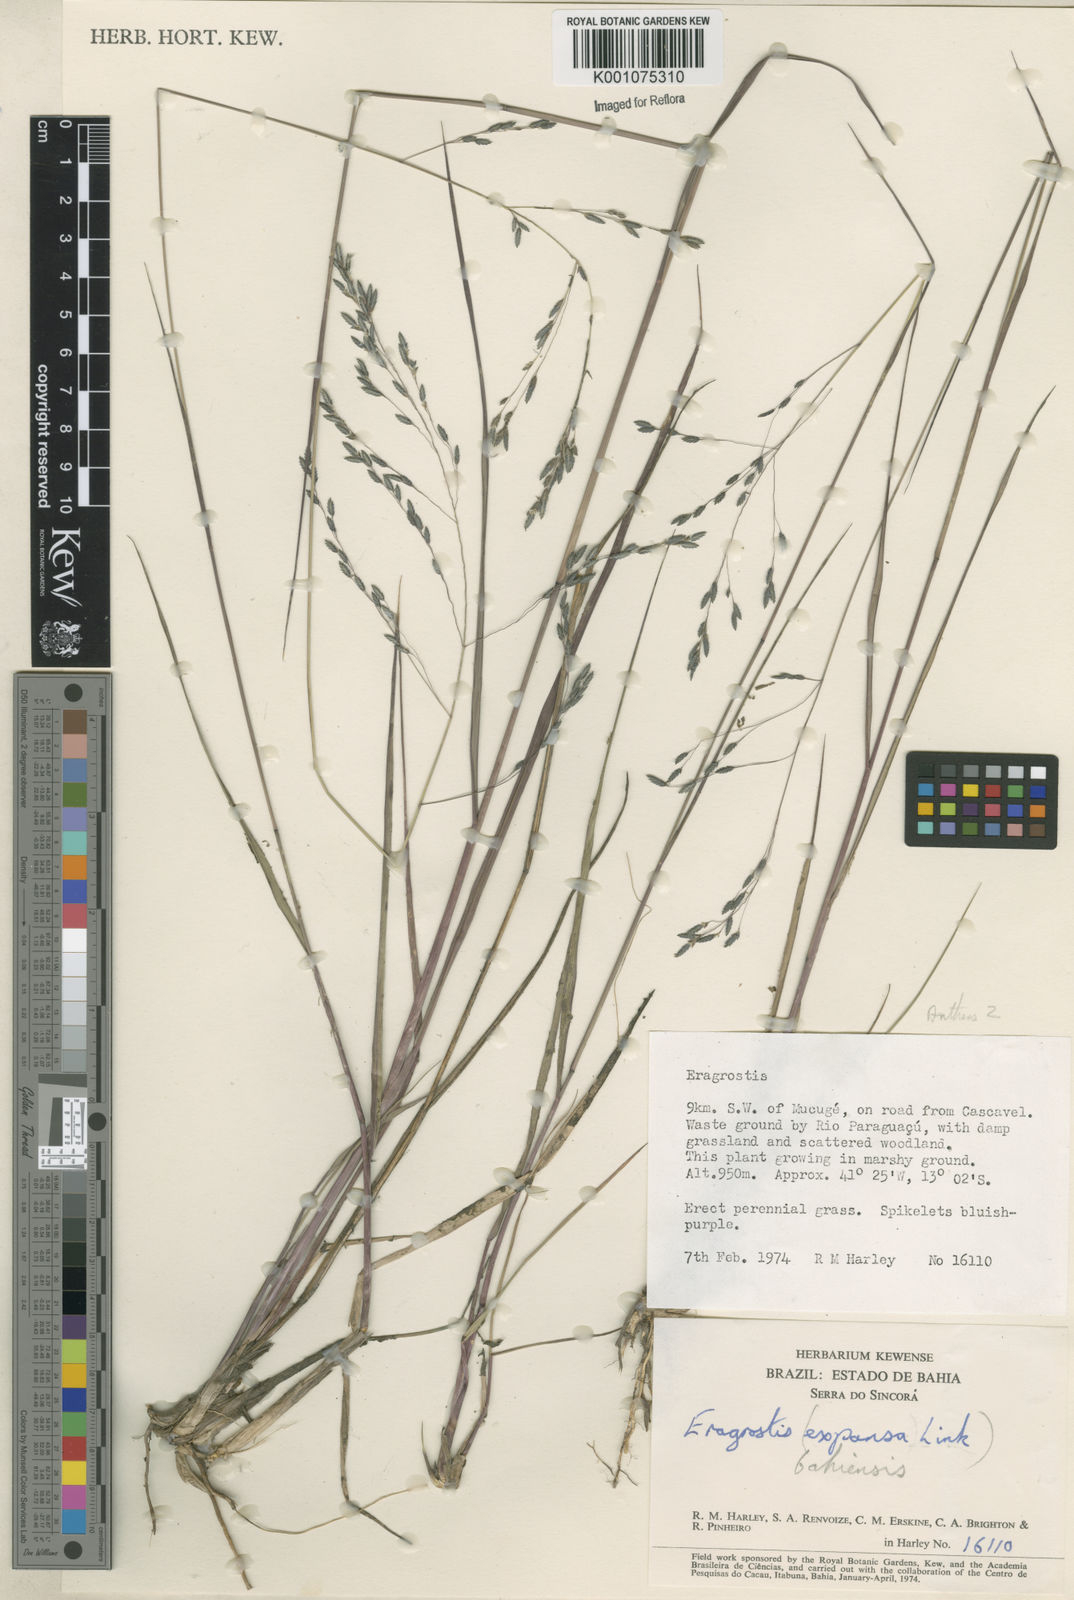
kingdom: Plantae
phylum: Tracheophyta
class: Liliopsida
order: Poales
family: Poaceae
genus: Eragrostis
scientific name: Eragrostis bahiensis
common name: Bahia lovegrass
